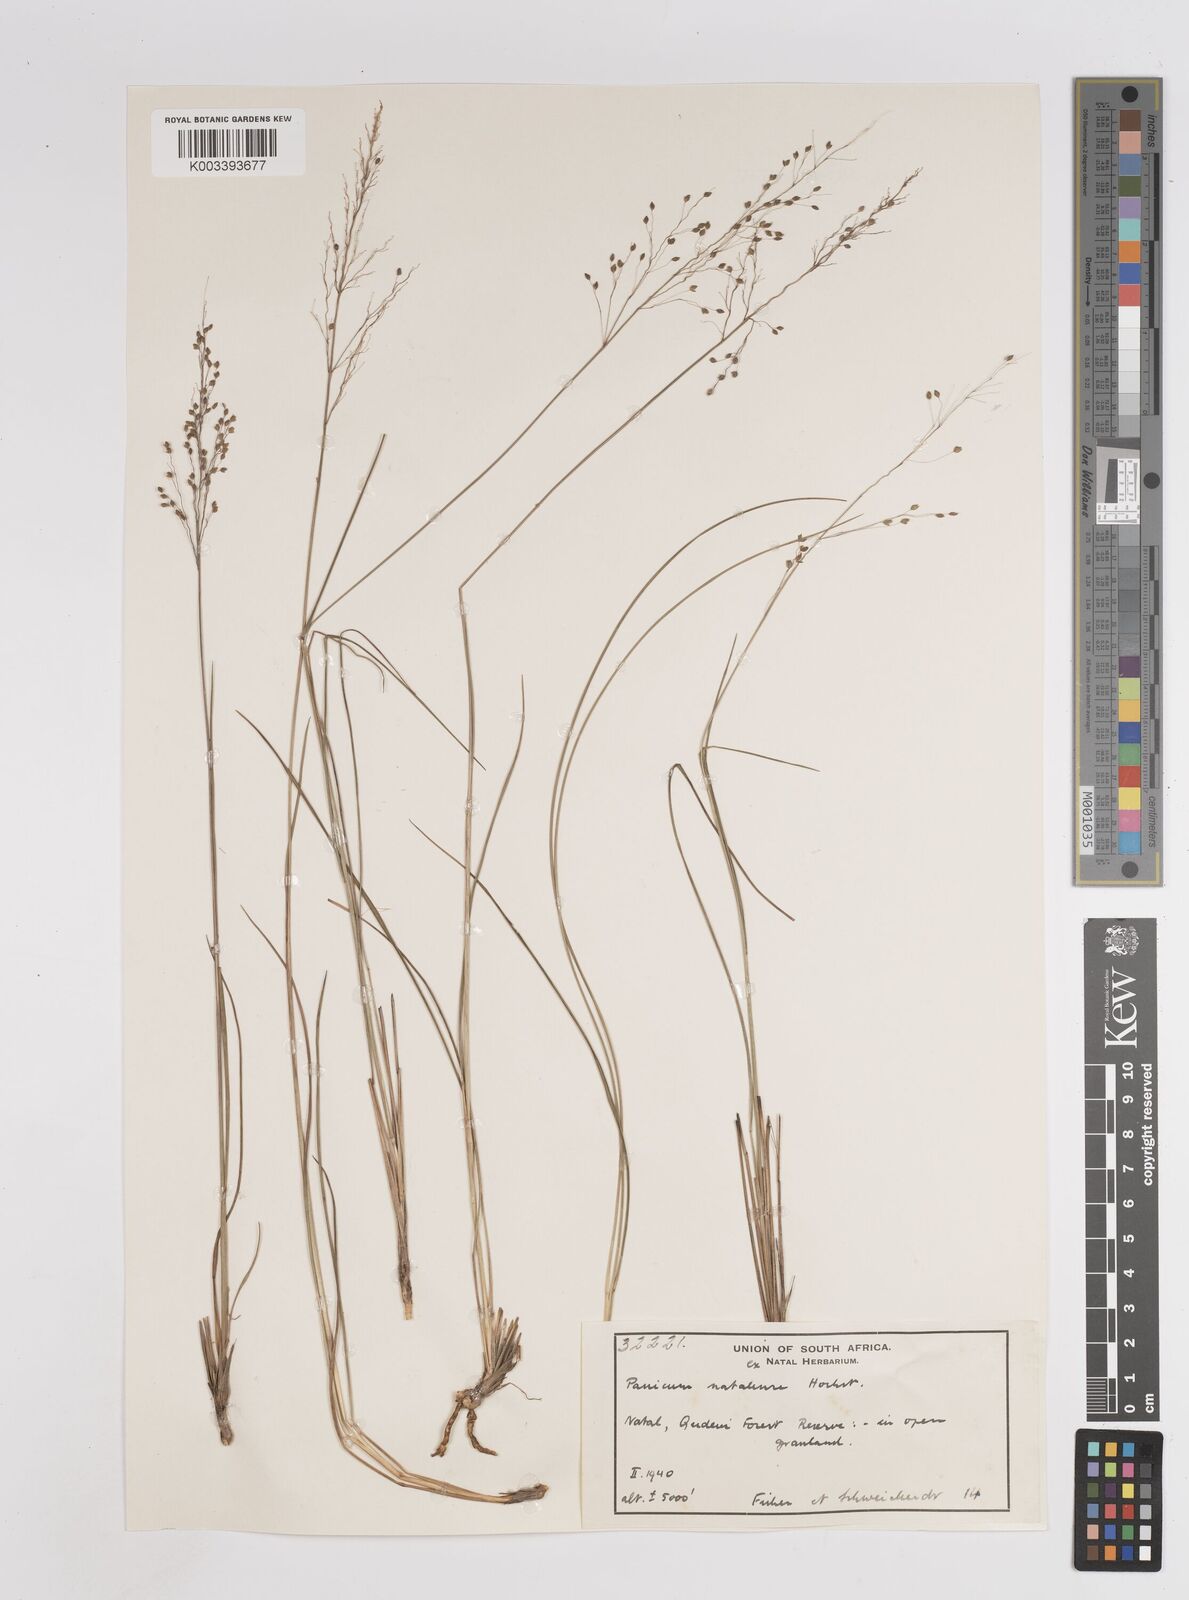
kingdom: Plantae
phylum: Tracheophyta
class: Liliopsida
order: Poales
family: Poaceae
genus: Trichanthecium
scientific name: Trichanthecium natalense
